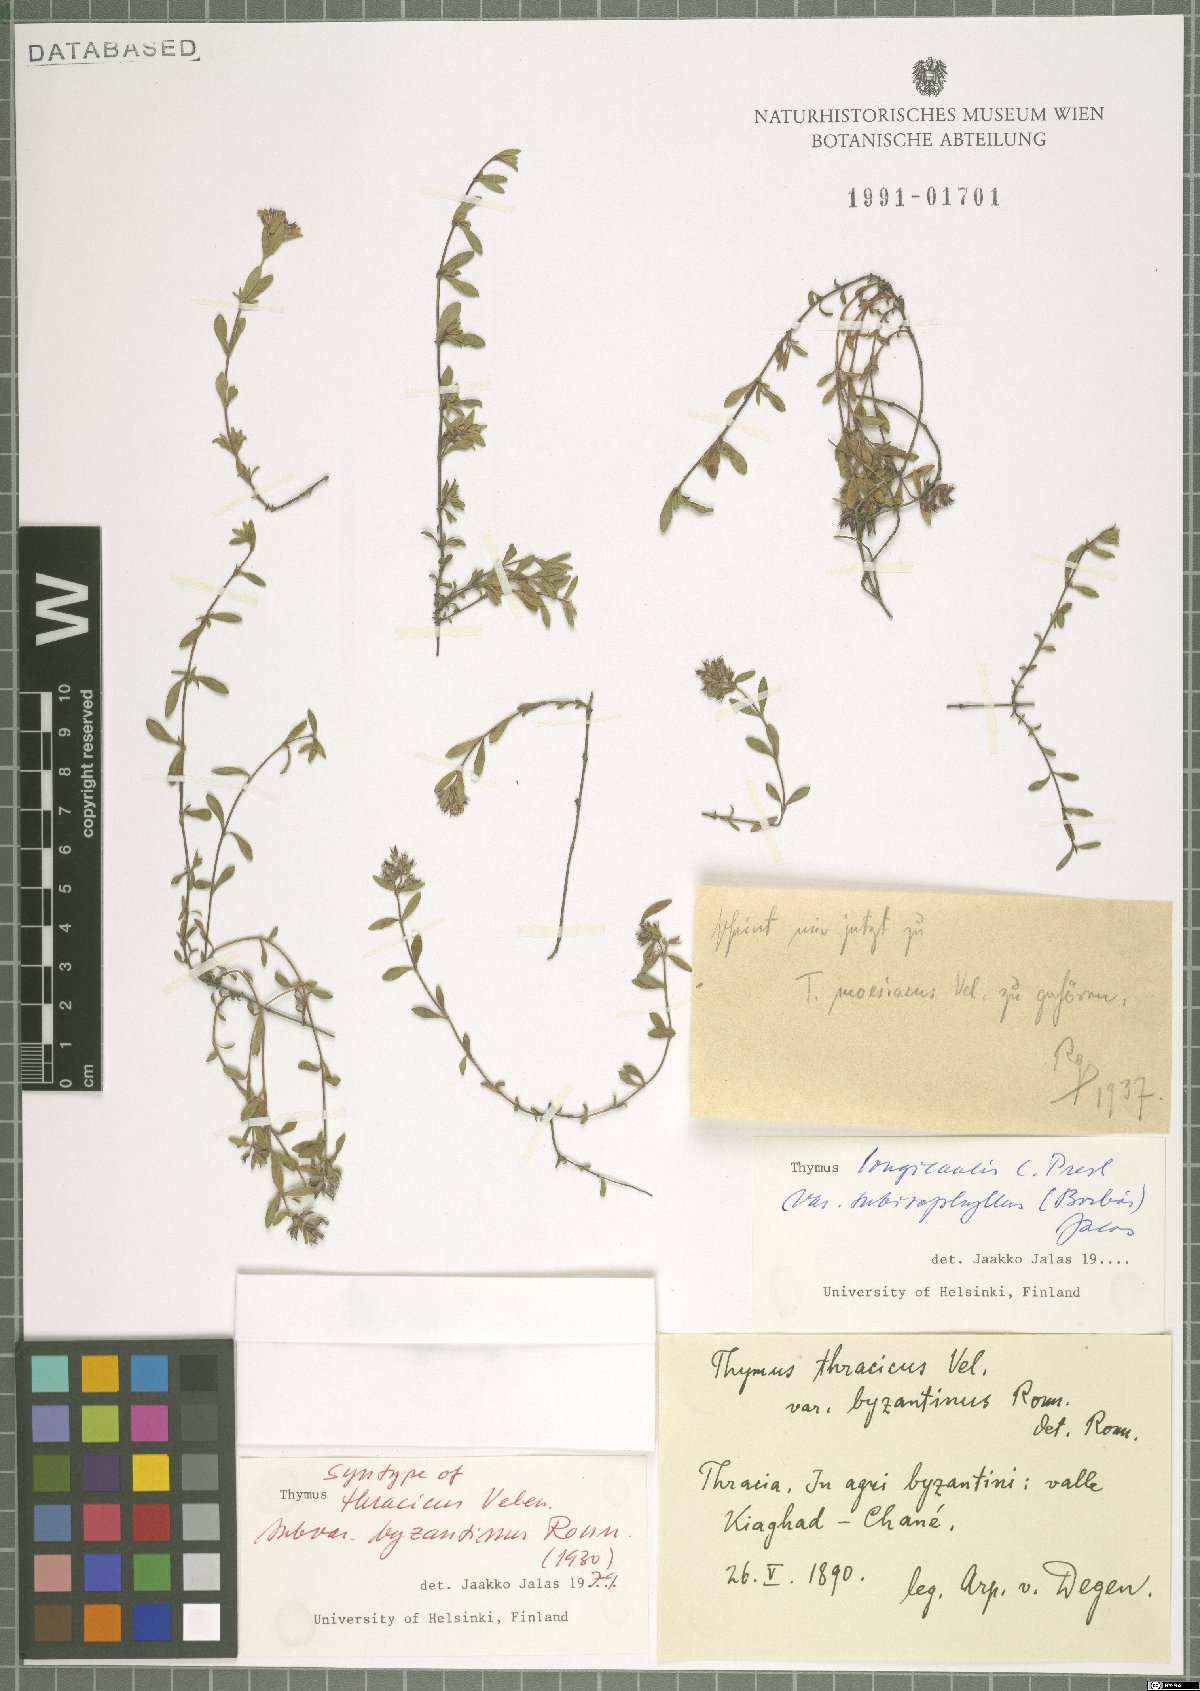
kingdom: Plantae
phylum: Tracheophyta
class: Magnoliopsida
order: Lamiales
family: Lamiaceae
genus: Thymus
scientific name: Thymus thracicus
